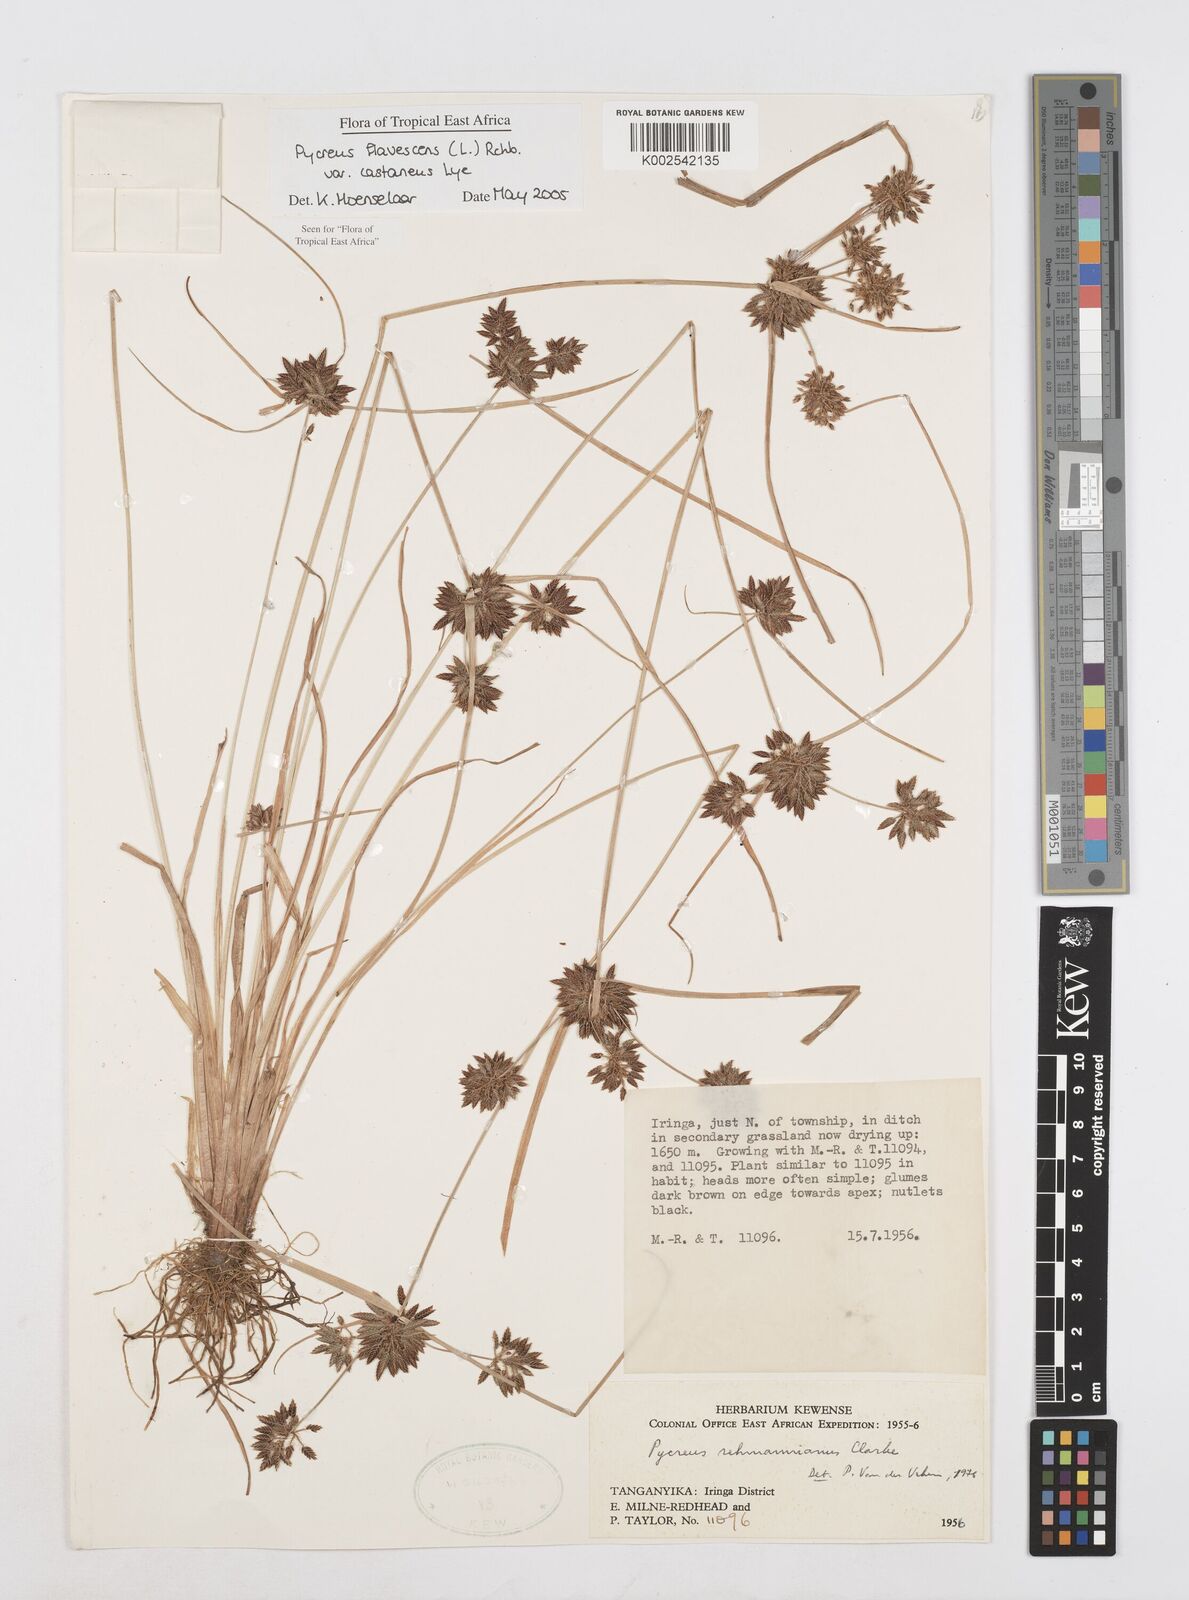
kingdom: Plantae
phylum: Tracheophyta
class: Liliopsida
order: Poales
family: Cyperaceae
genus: Cyperus
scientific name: Cyperus flavescens
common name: Yellow galingale
